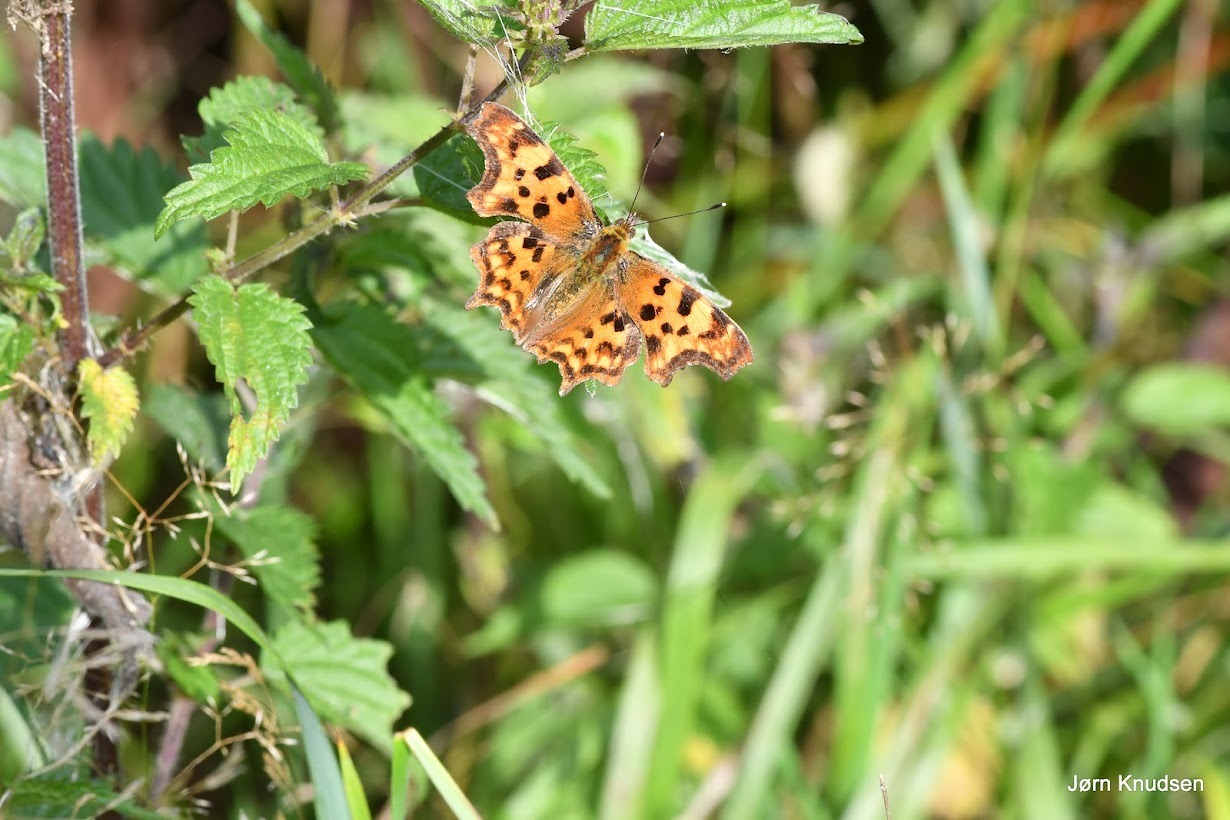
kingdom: Animalia
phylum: Arthropoda
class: Insecta
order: Lepidoptera
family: Nymphalidae
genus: Polygonia
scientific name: Polygonia c-album
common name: Det hvide C
